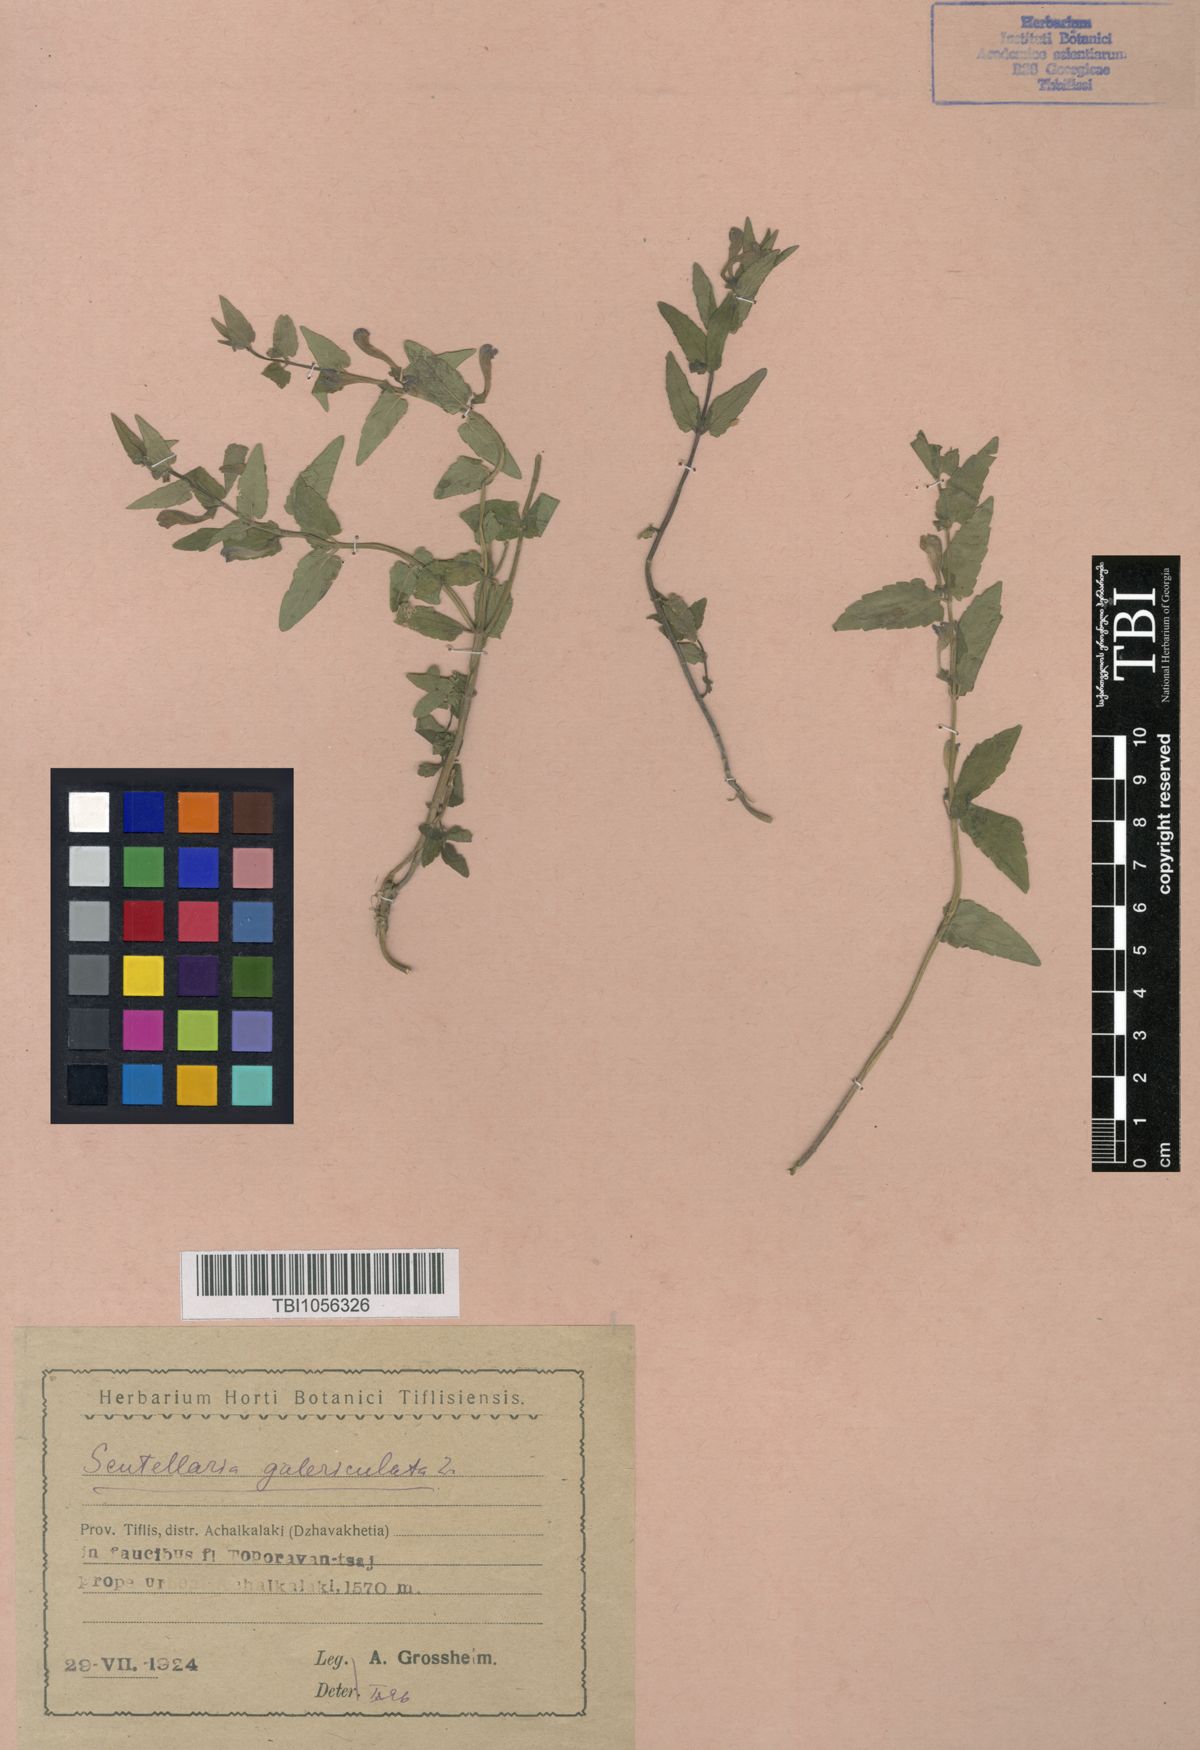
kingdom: Plantae
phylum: Tracheophyta
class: Magnoliopsida
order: Lamiales
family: Lamiaceae
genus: Scutellaria
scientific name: Scutellaria galericulata
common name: Skullcap
